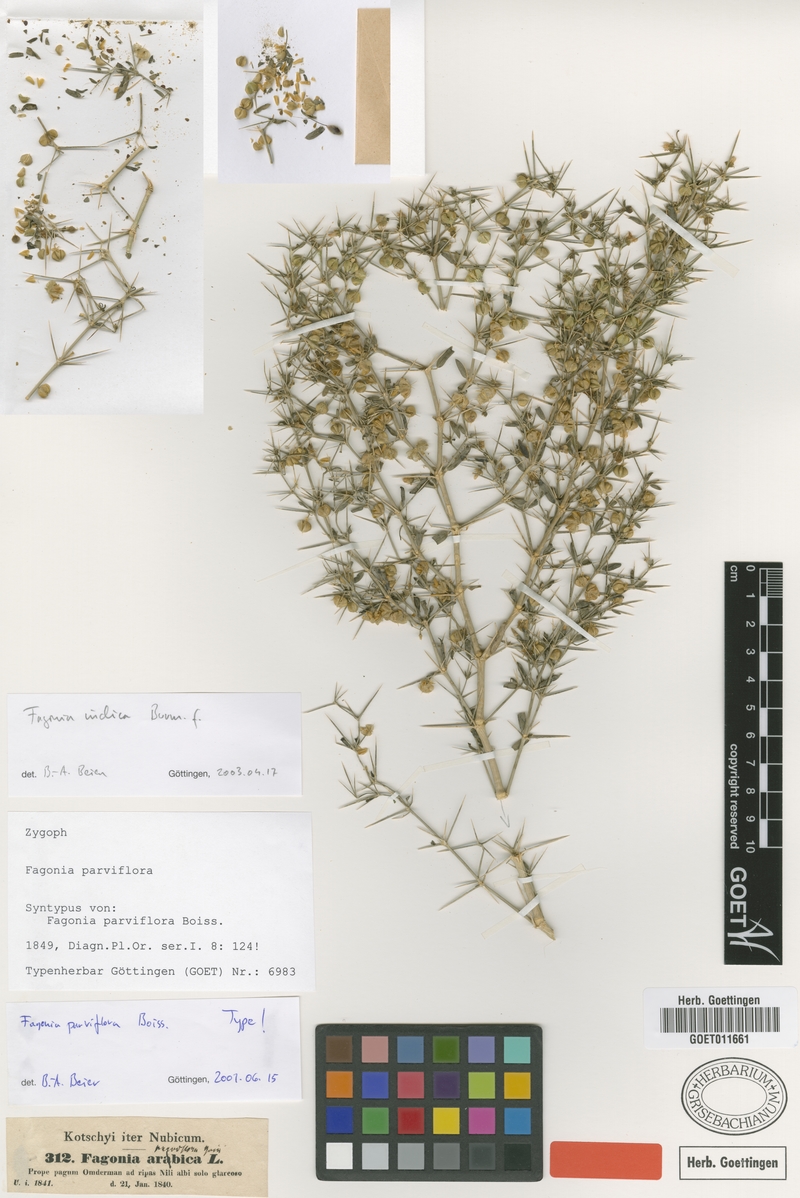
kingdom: Plantae
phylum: Tracheophyta
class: Magnoliopsida
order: Zygophyllales
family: Zygophyllaceae
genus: Fagonia
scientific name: Fagonia indica
